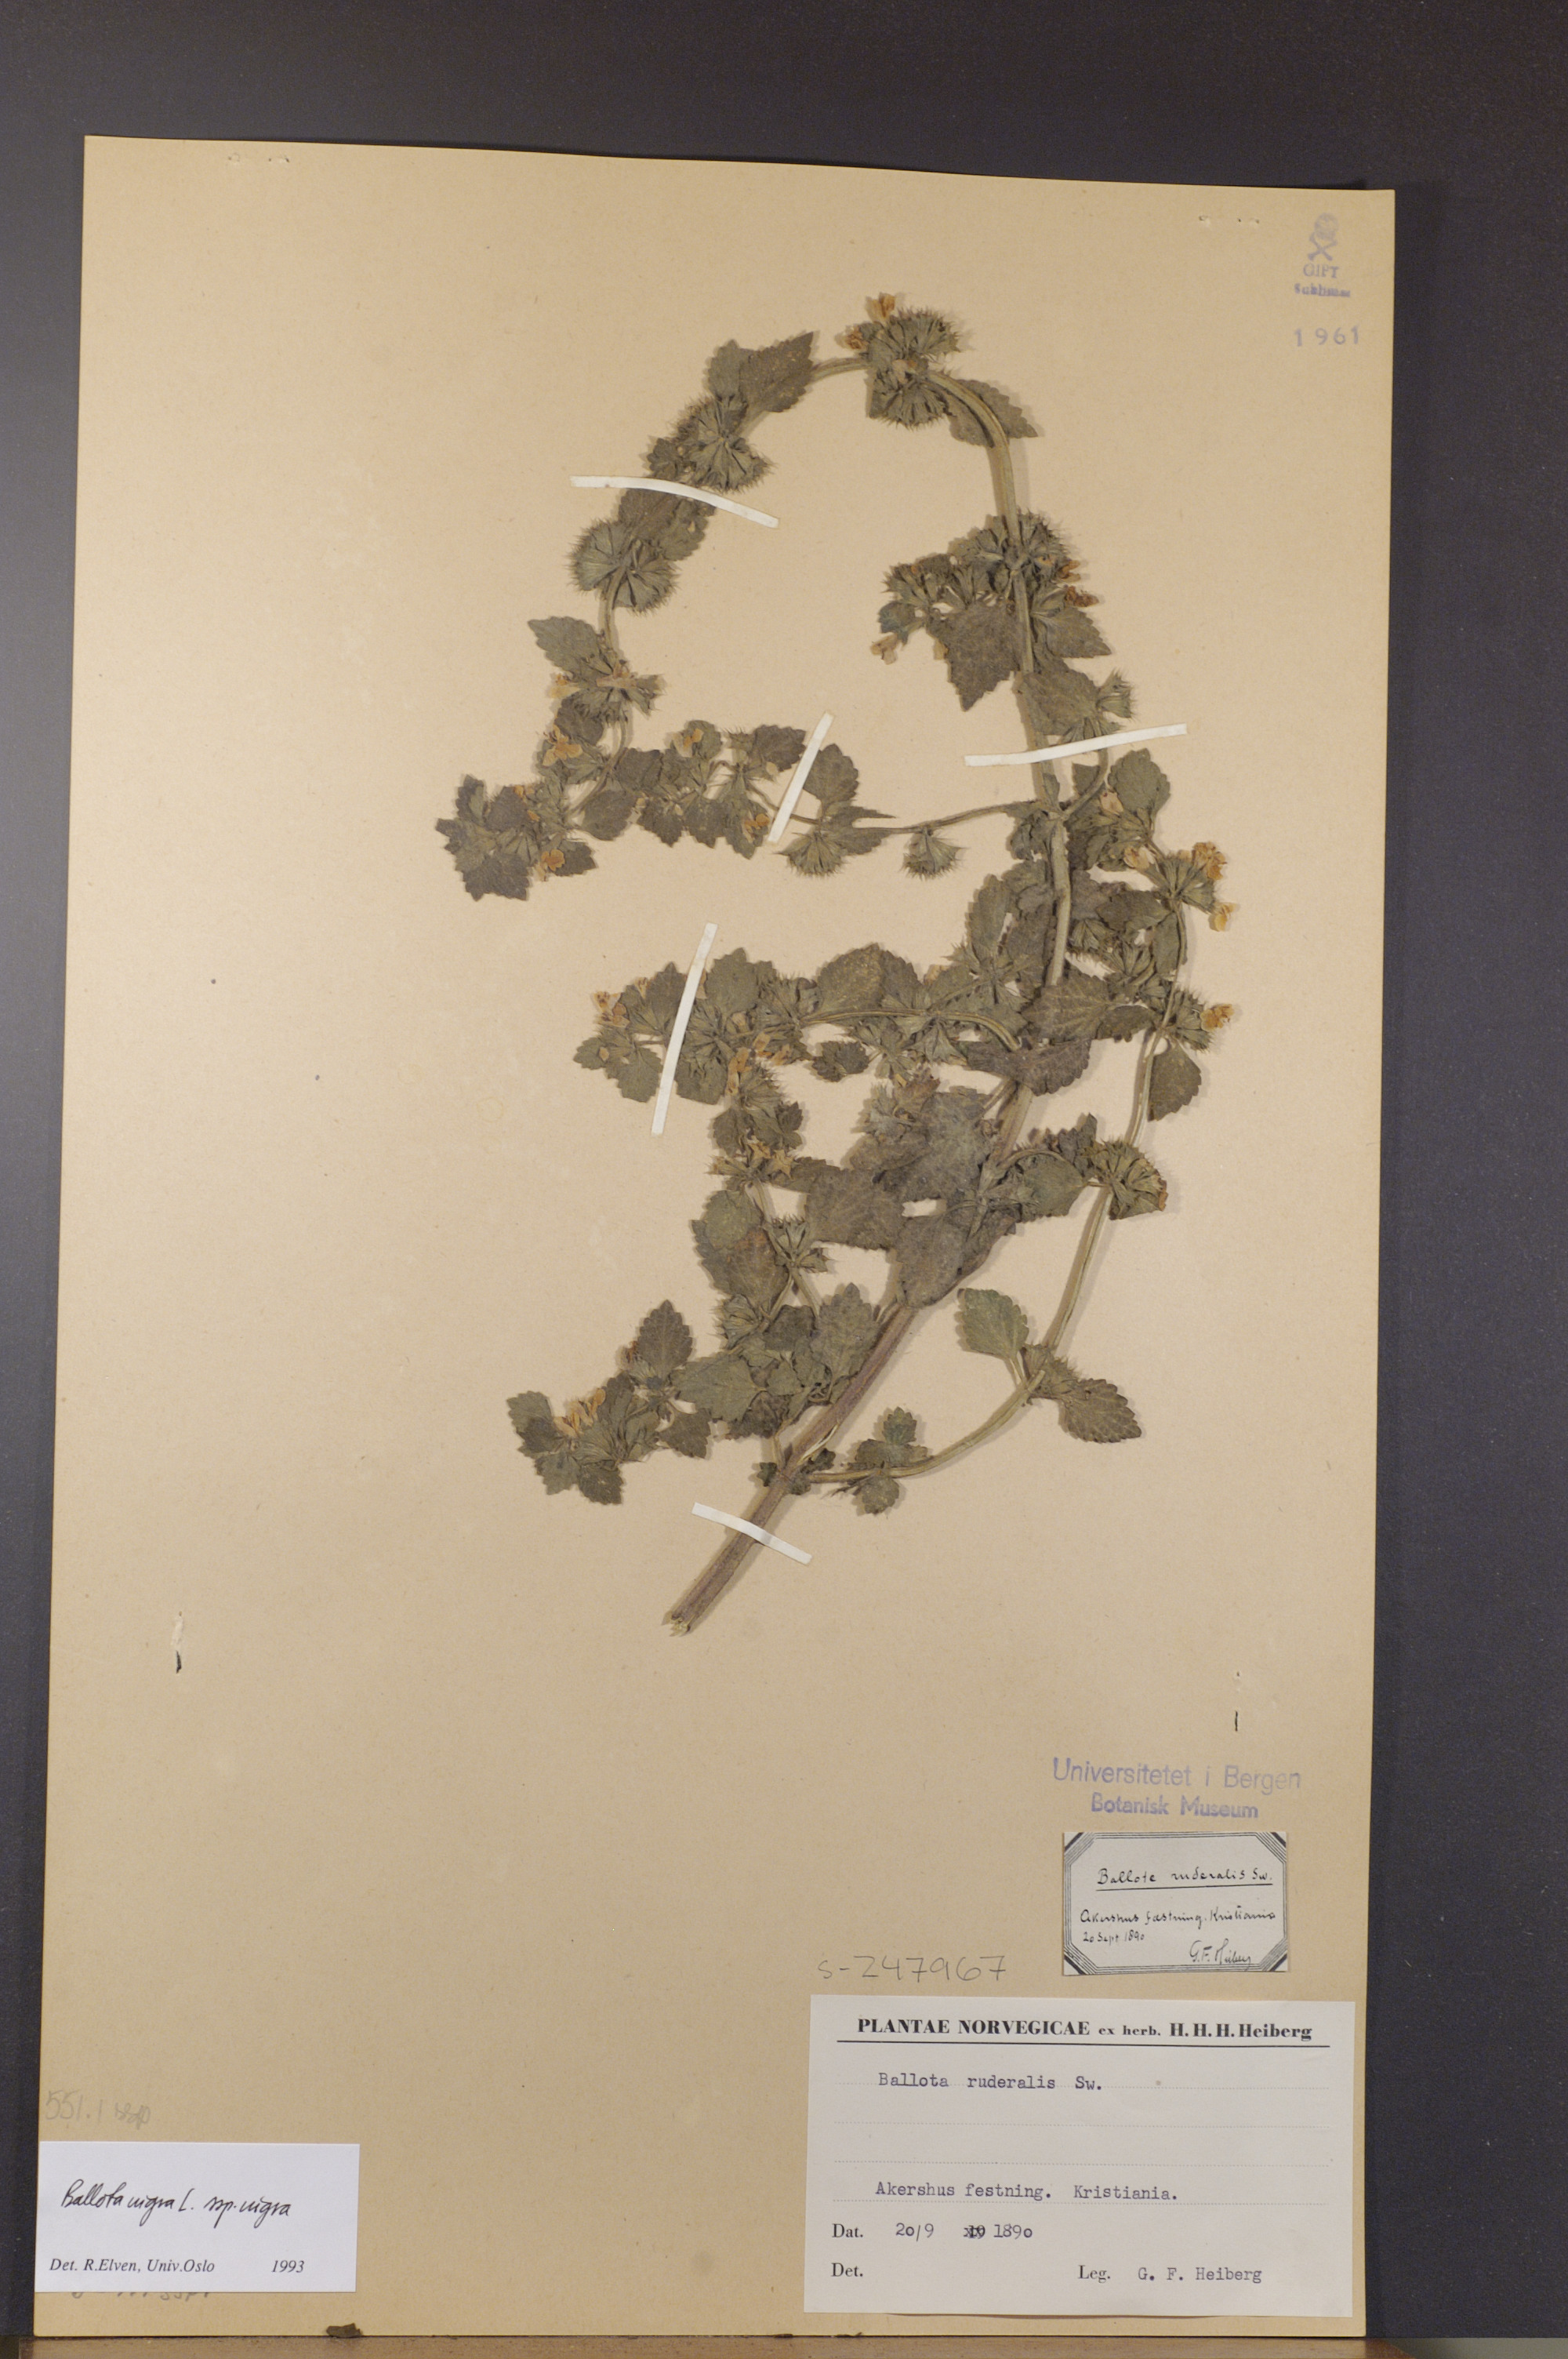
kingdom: Plantae
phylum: Tracheophyta
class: Magnoliopsida
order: Lamiales
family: Lamiaceae
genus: Ballota
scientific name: Ballota nigra
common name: Black horehound
